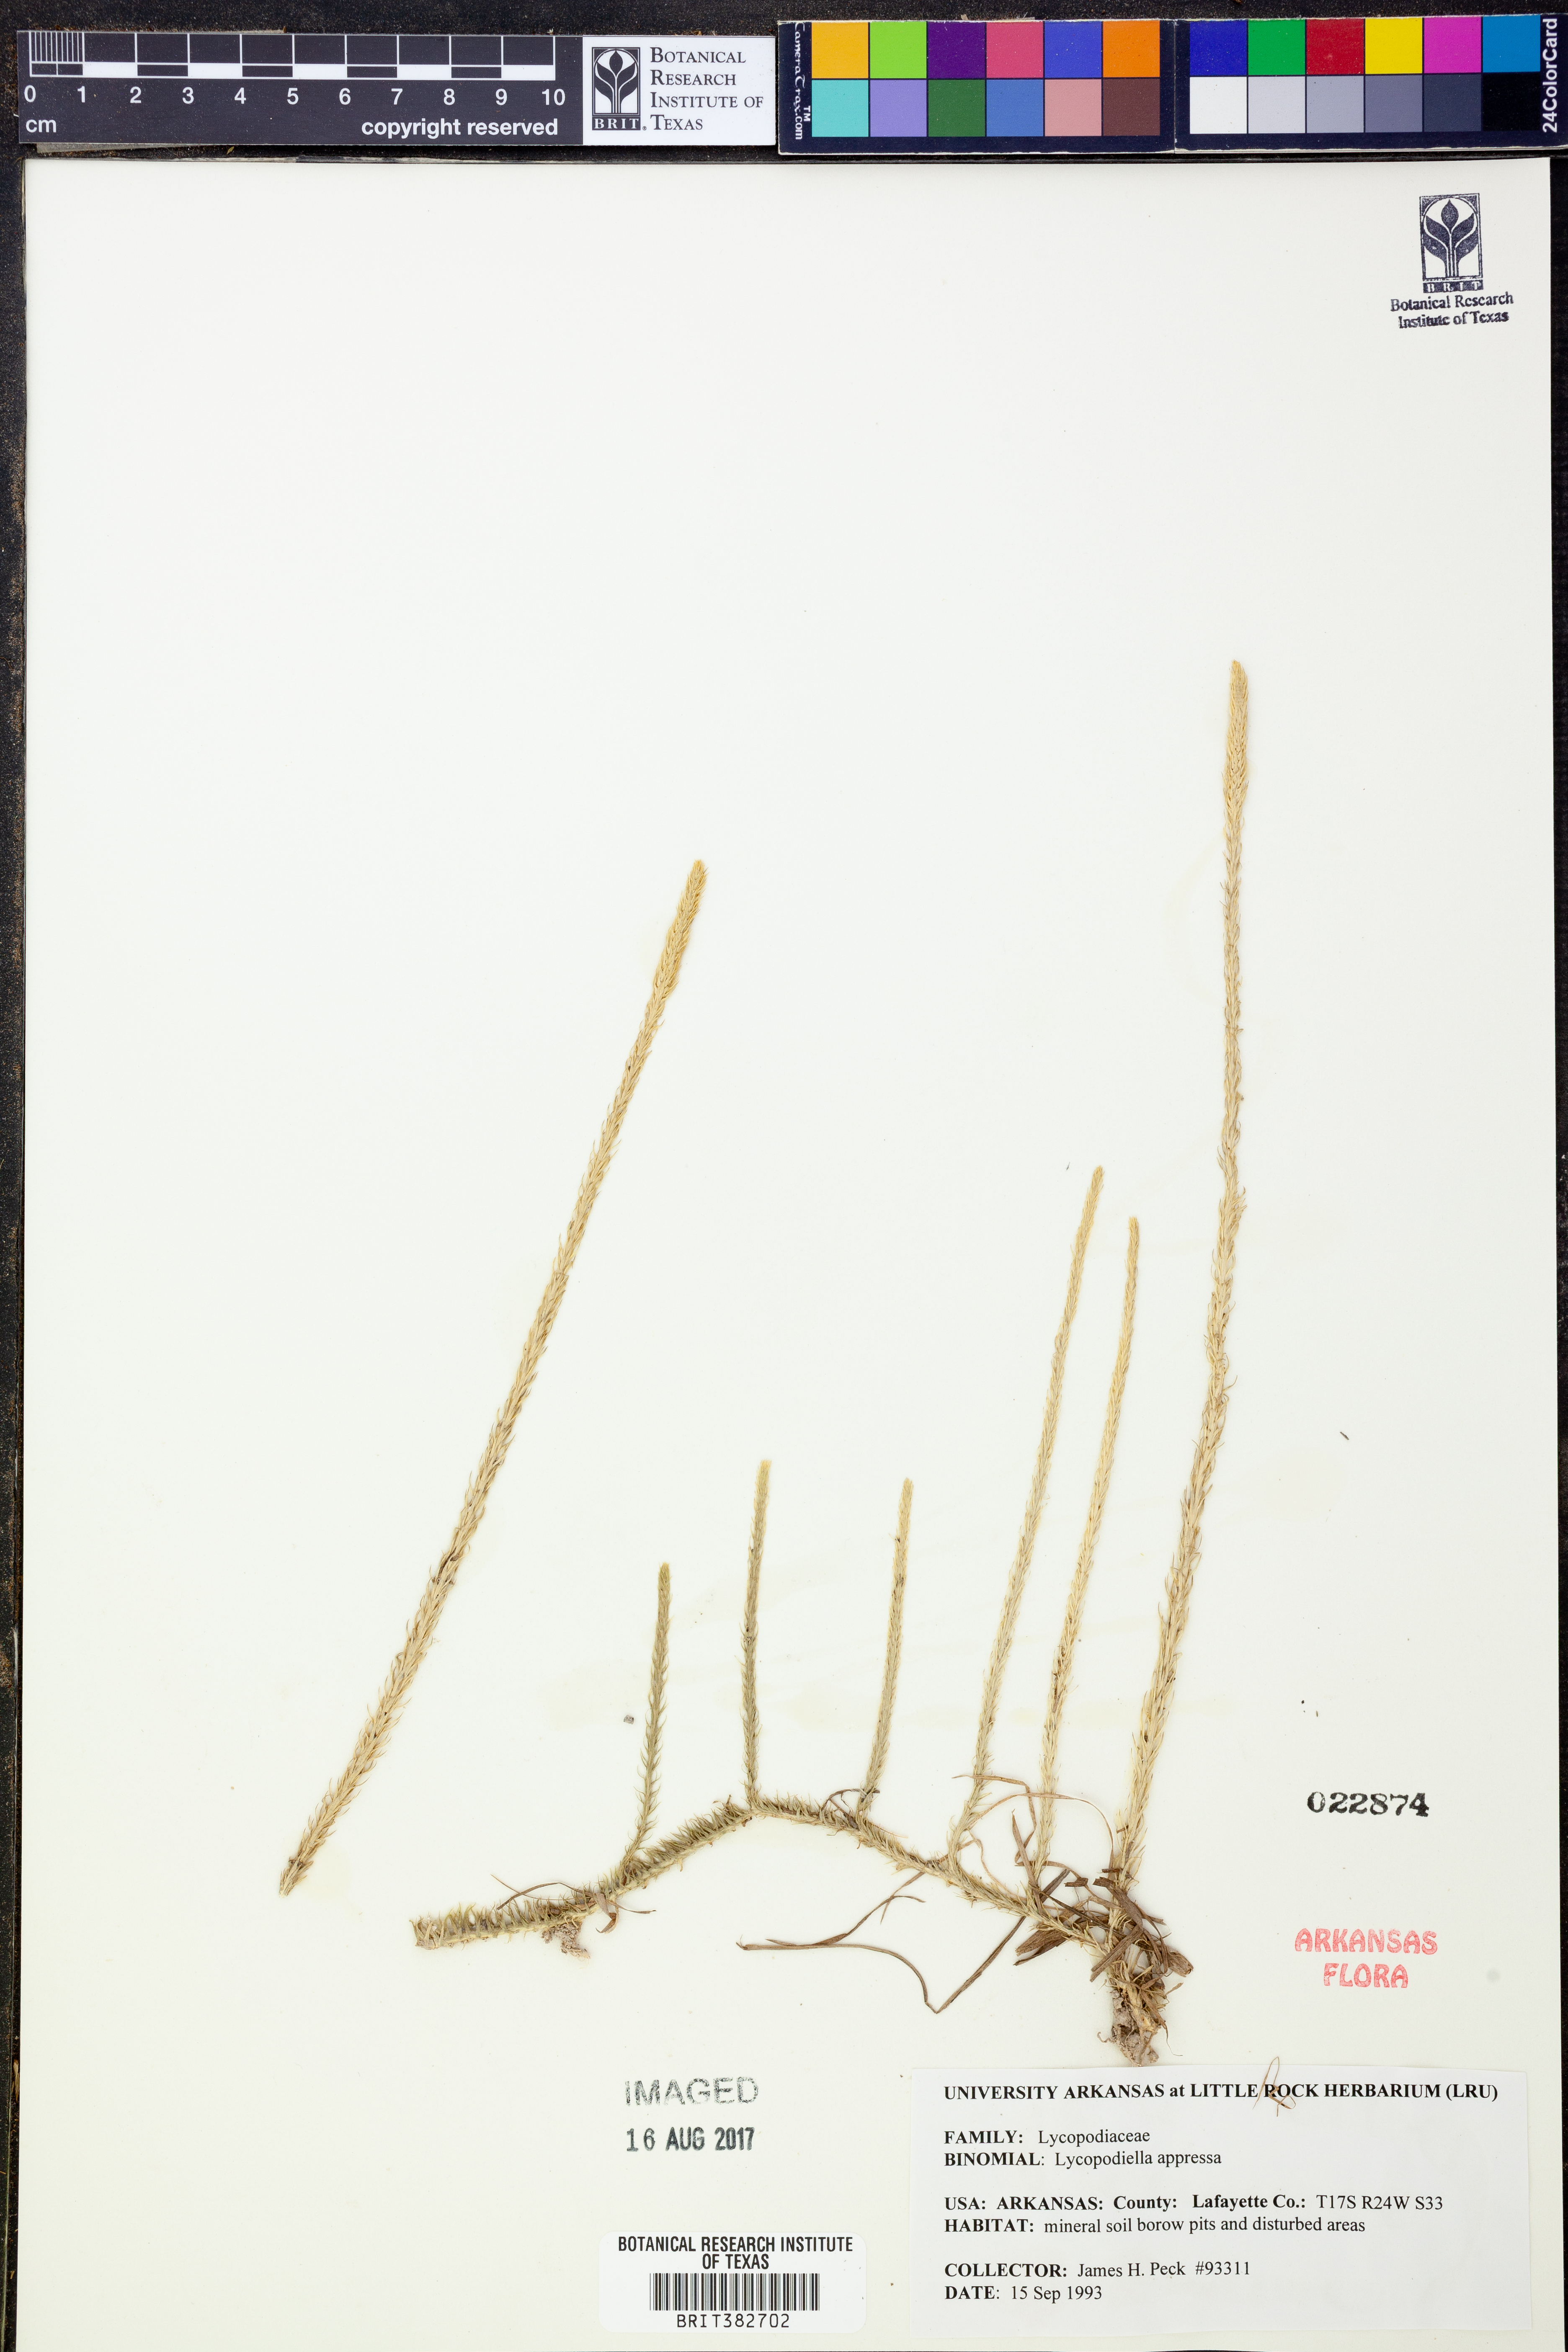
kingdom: Plantae
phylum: Tracheophyta
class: Lycopodiopsida
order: Lycopodiales
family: Lycopodiaceae
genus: Lycopodiella
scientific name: Lycopodiella appressa
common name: Appressed bog clubmoss
